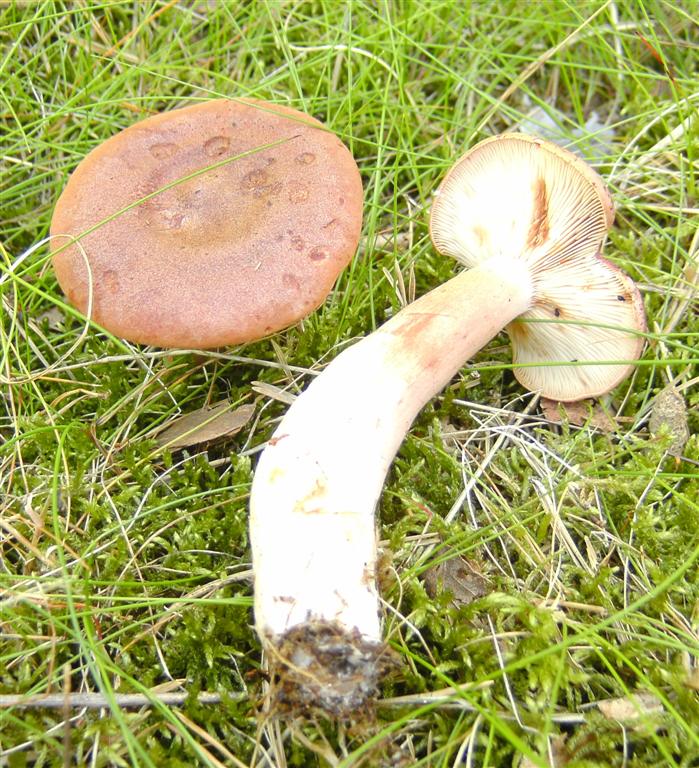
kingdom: Fungi
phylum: Basidiomycota
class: Agaricomycetes
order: Russulales
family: Russulaceae
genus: Lactarius
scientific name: Lactarius rufus
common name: rødbrun mælkehat
